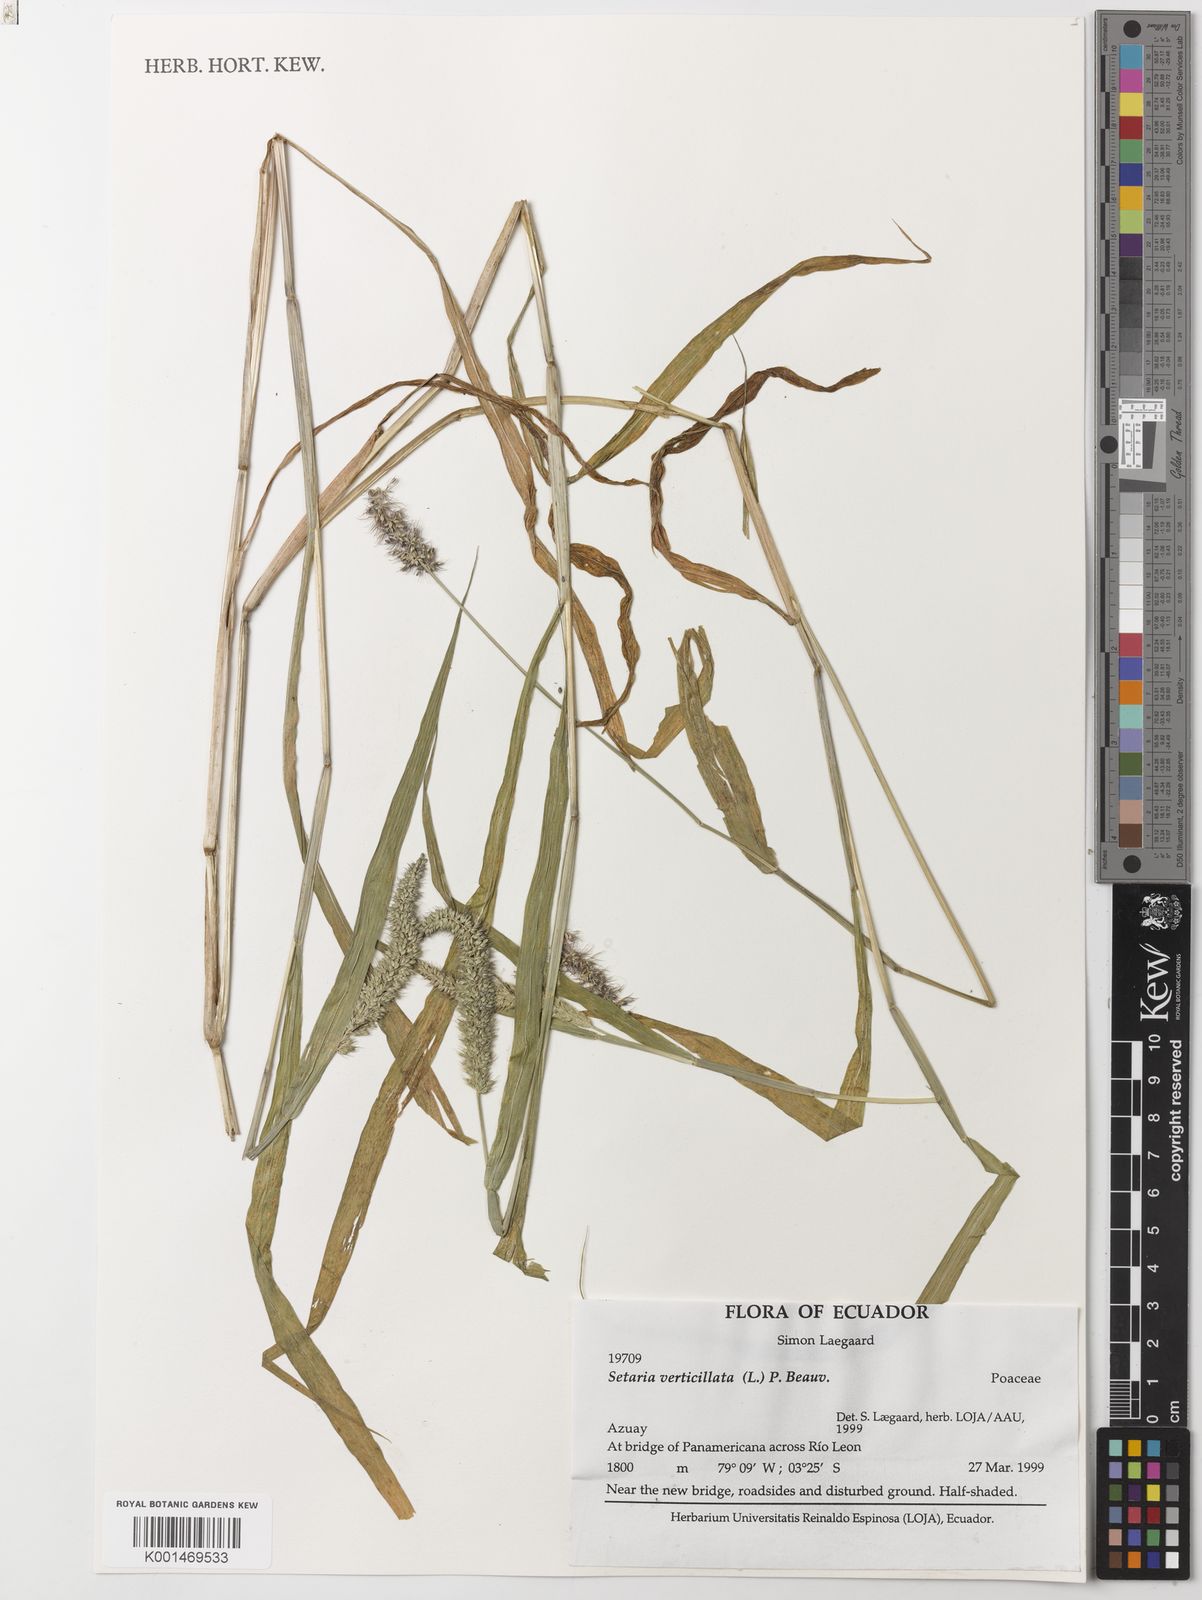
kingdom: Plantae
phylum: Tracheophyta
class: Liliopsida
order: Poales
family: Poaceae
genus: Setaria
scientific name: Setaria verticillata
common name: Hooked bristlegrass
